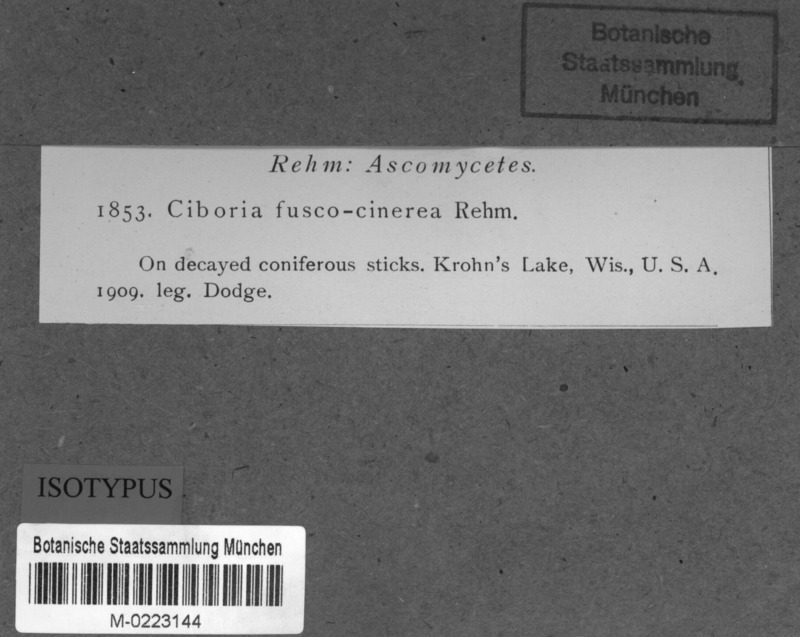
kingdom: Fungi
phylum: Ascomycota
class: Leotiomycetes
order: Helotiales
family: Sclerotiniaceae
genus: Ciboria
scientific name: Ciboria fuscocinerea
